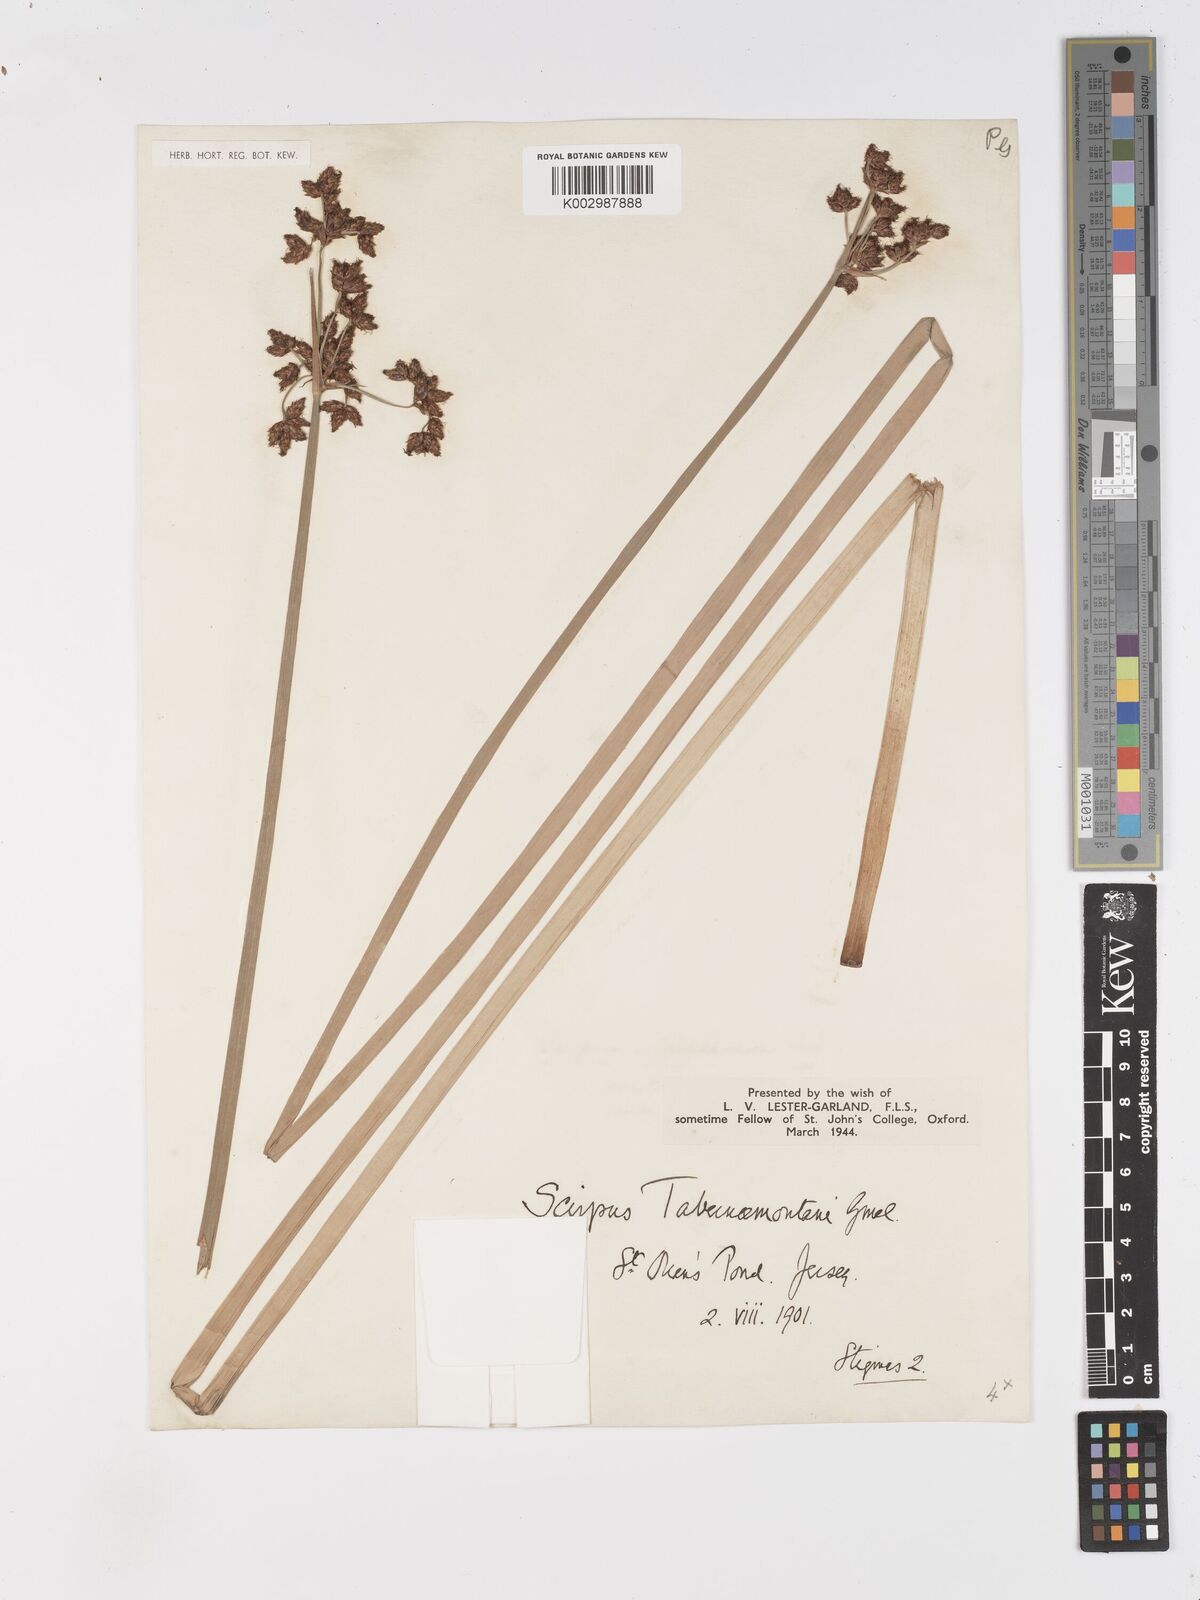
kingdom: Plantae
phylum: Tracheophyta
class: Liliopsida
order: Poales
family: Cyperaceae
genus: Schoenoplectus
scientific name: Schoenoplectus tabernaemontani
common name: Grey club-rush
